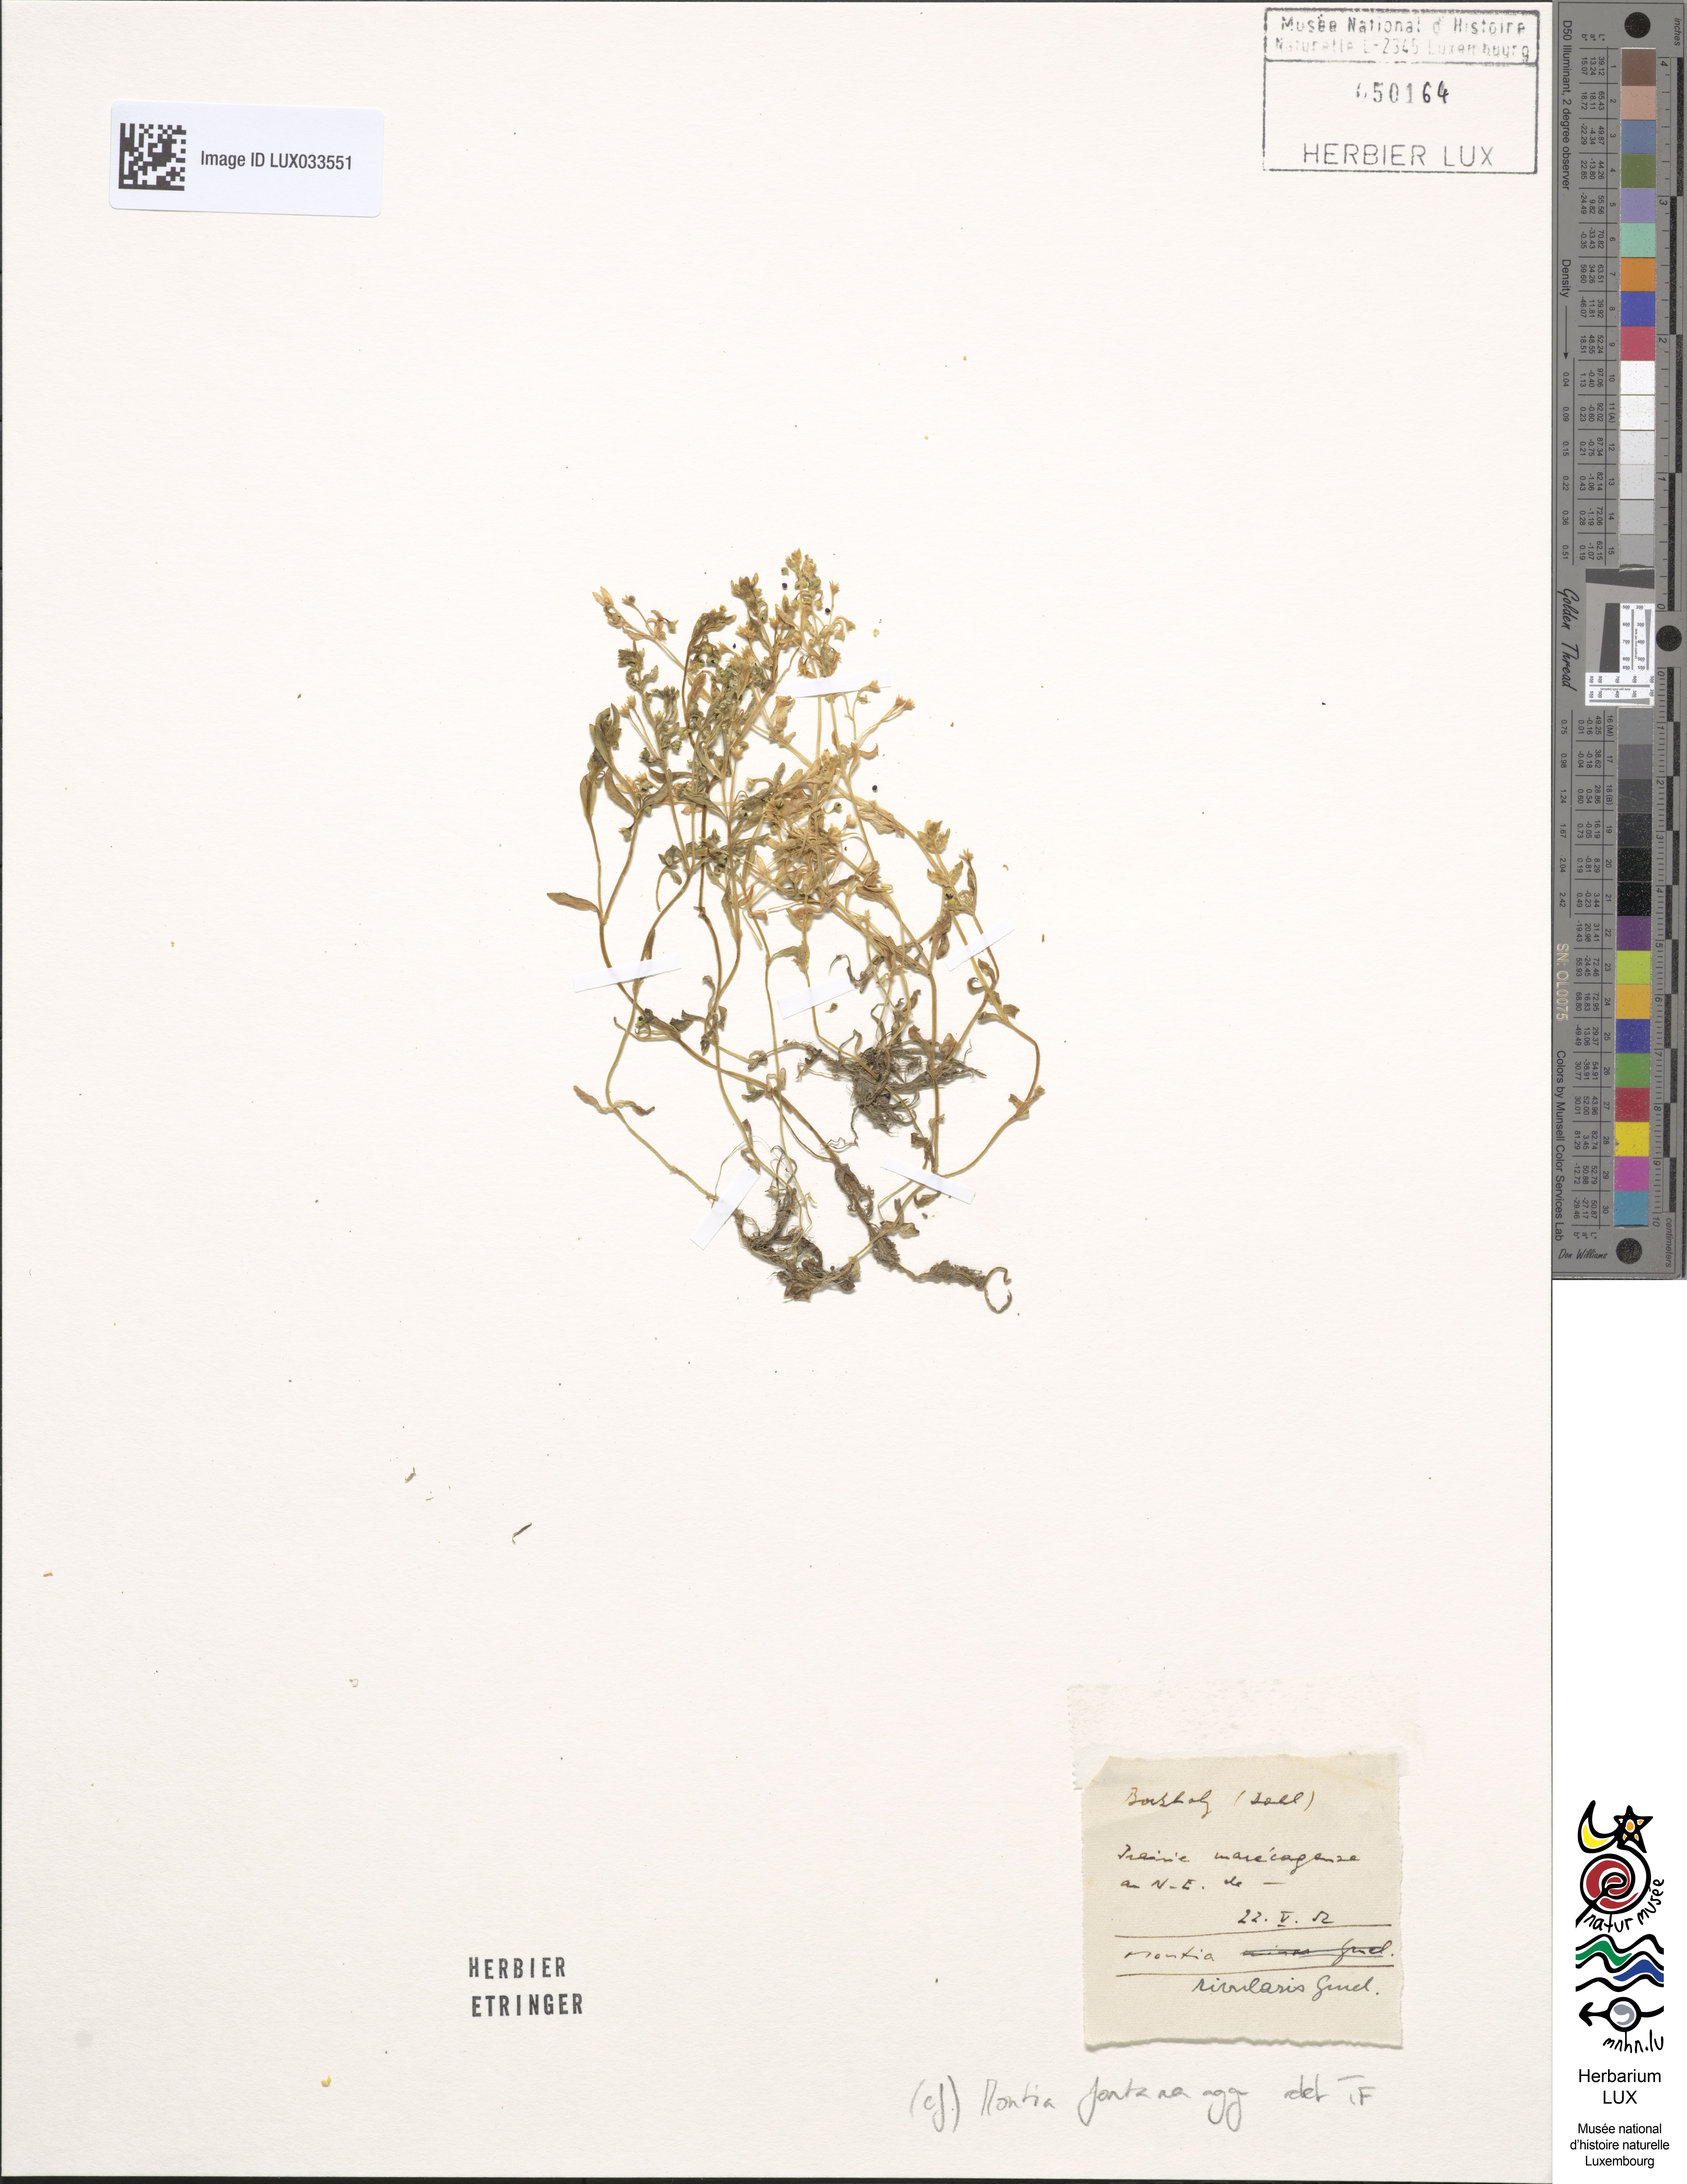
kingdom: Plantae
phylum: Tracheophyta
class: Magnoliopsida
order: Caryophyllales
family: Montiaceae
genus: Montia
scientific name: Montia fontana
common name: Blinks
